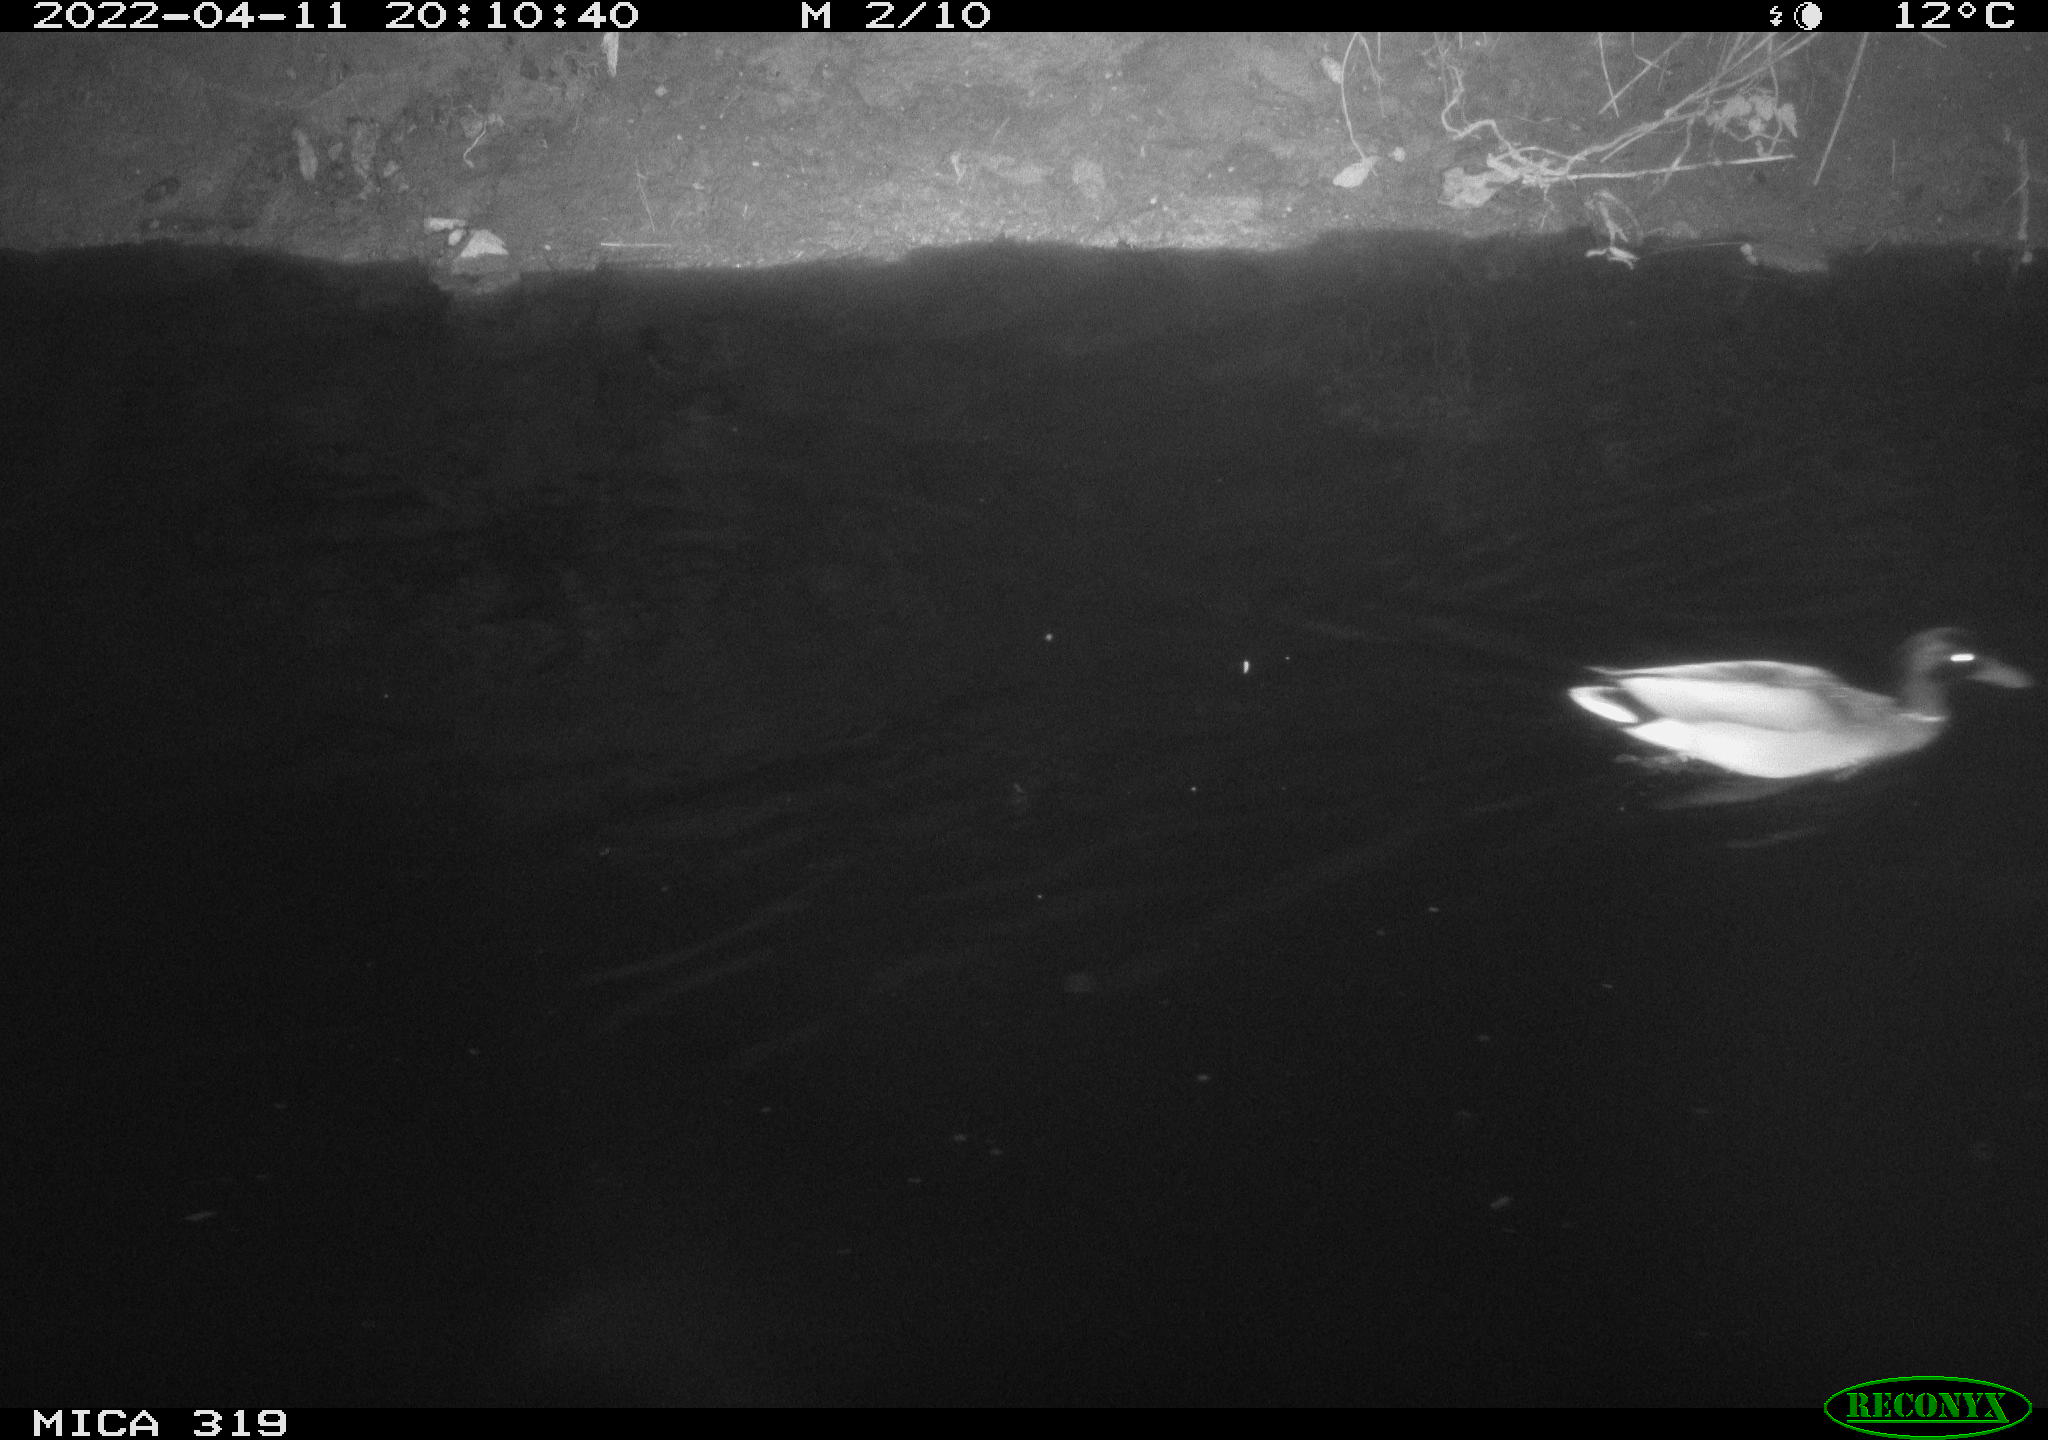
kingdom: Animalia
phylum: Chordata
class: Aves
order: Anseriformes
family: Anatidae
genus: Anas
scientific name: Anas platyrhynchos
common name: Mallard
